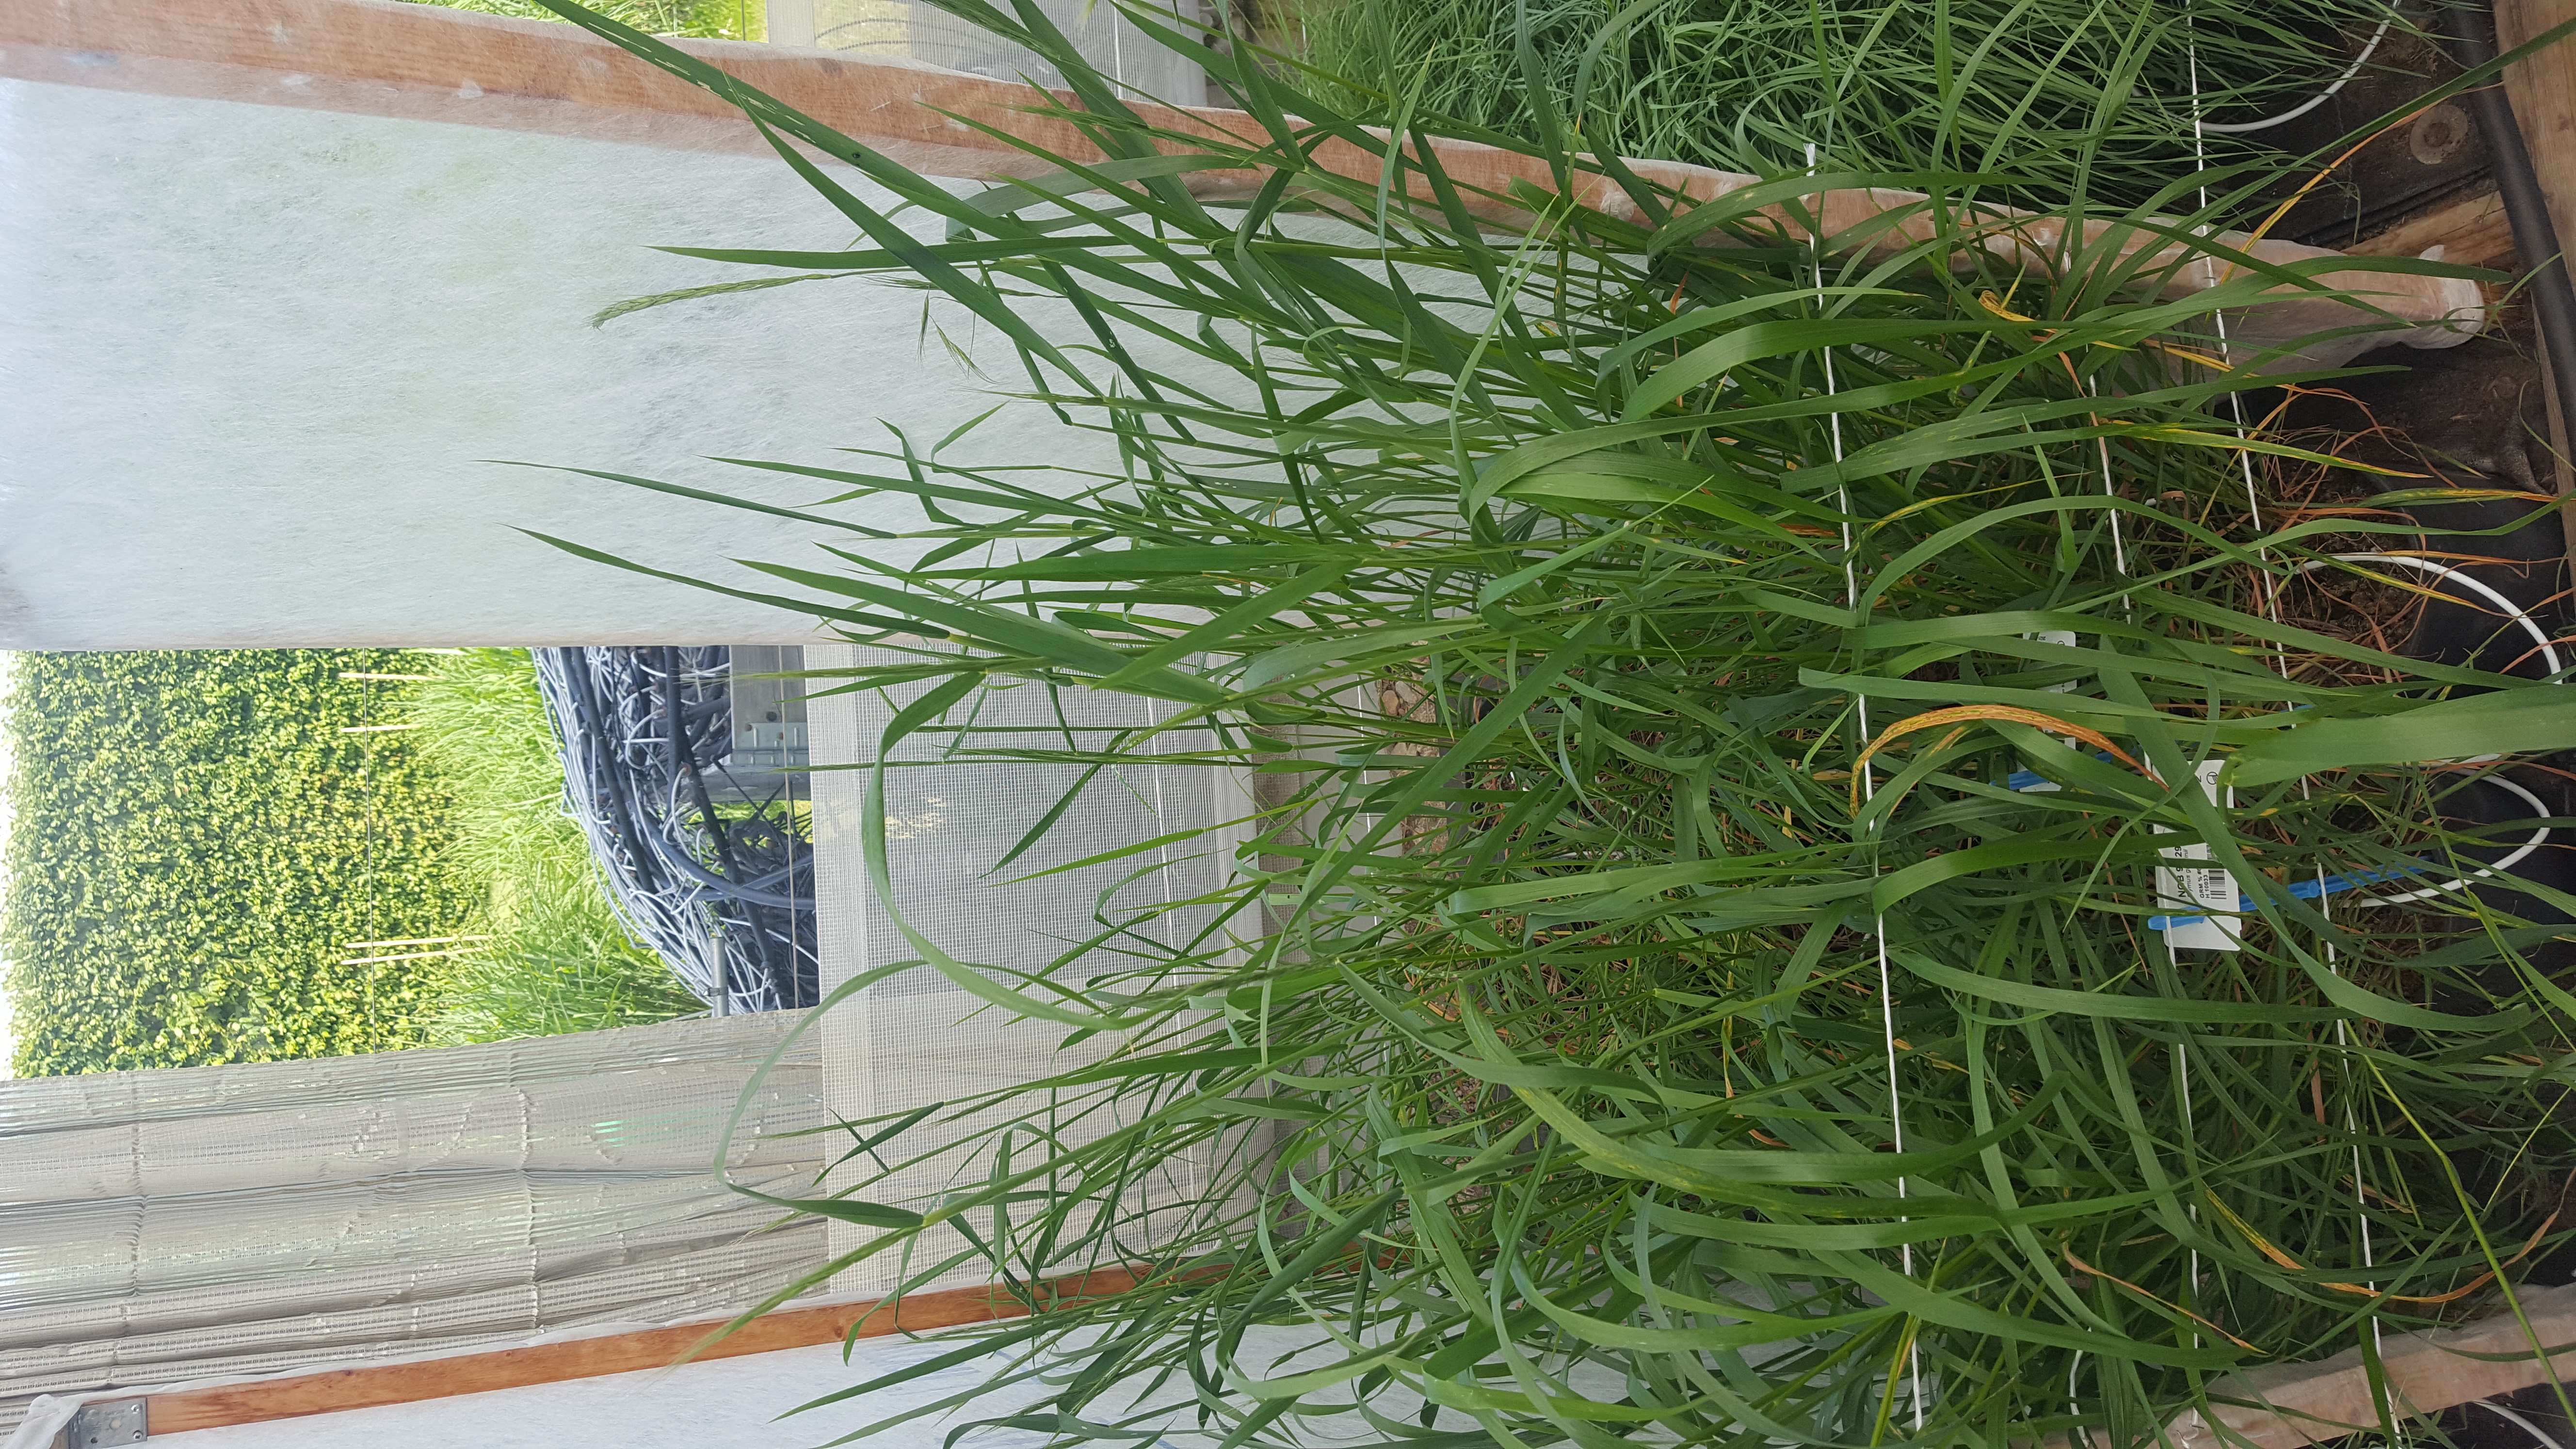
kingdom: Plantae
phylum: Tracheophyta
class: Liliopsida
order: Poales
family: Poaceae
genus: Elymus
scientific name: Elymus gmelinii
